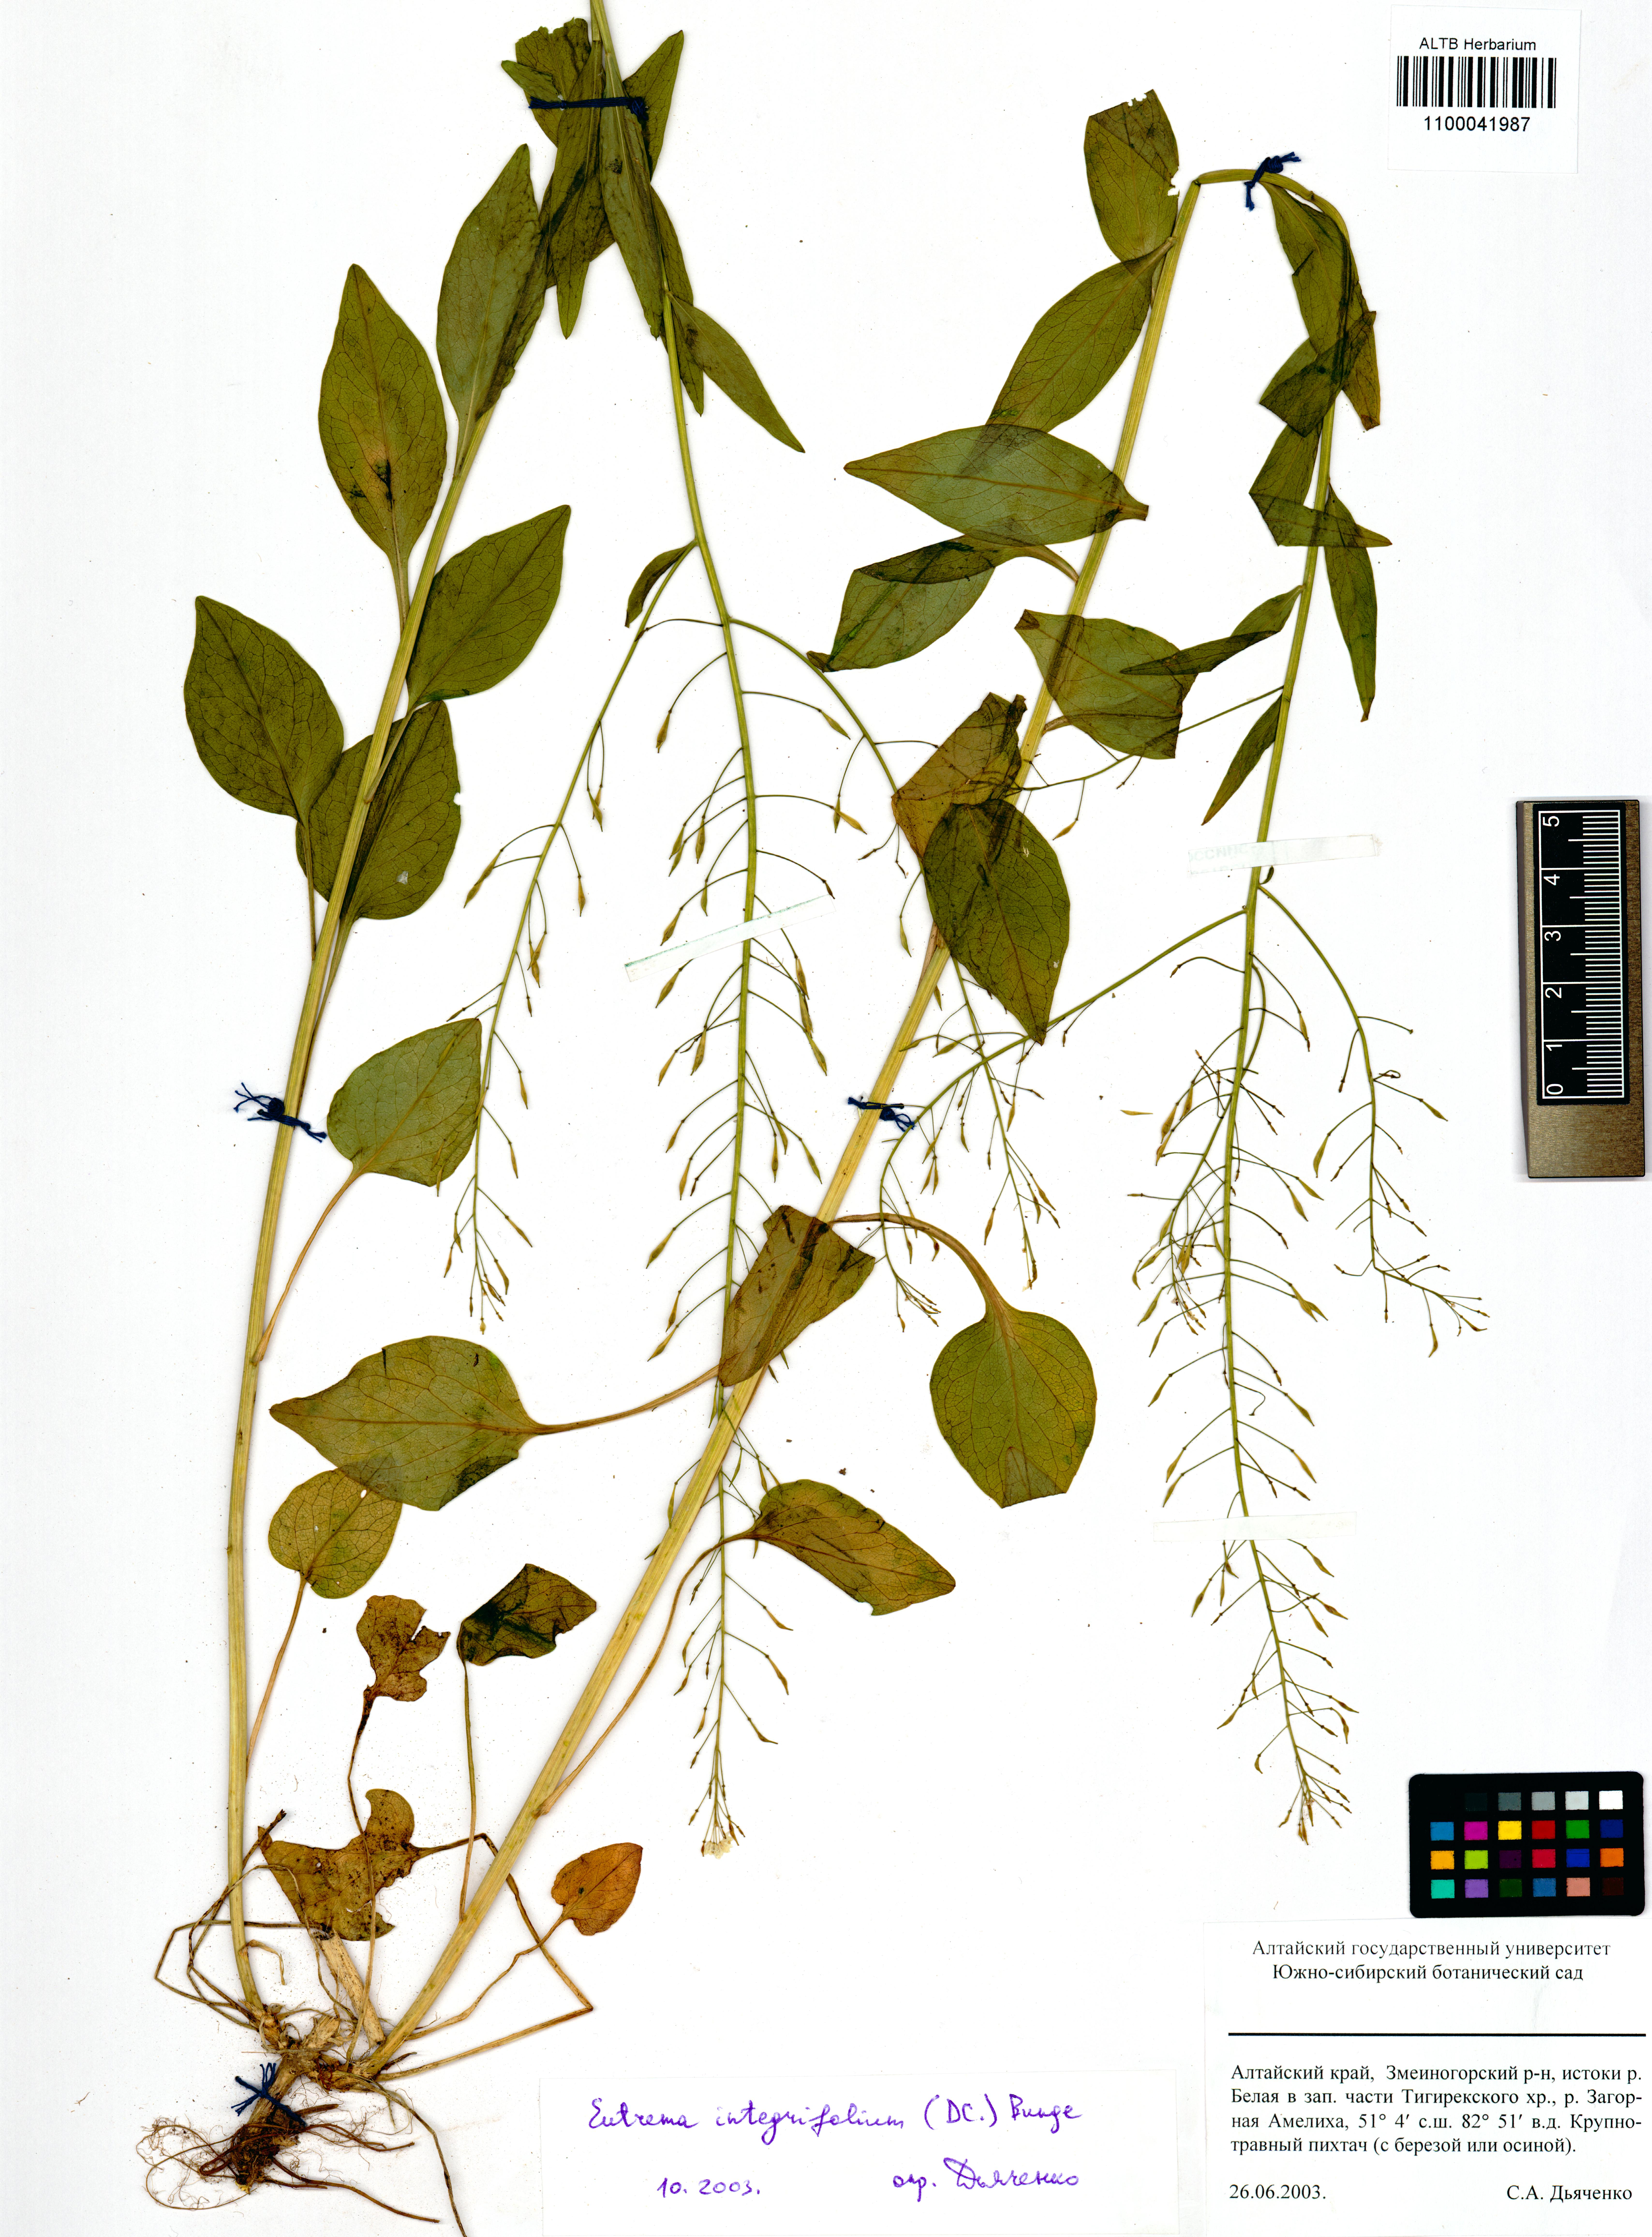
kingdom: Plantae
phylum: Tracheophyta
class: Magnoliopsida
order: Brassicales
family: Brassicaceae
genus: Eutrema
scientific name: Eutrema integrifolium
